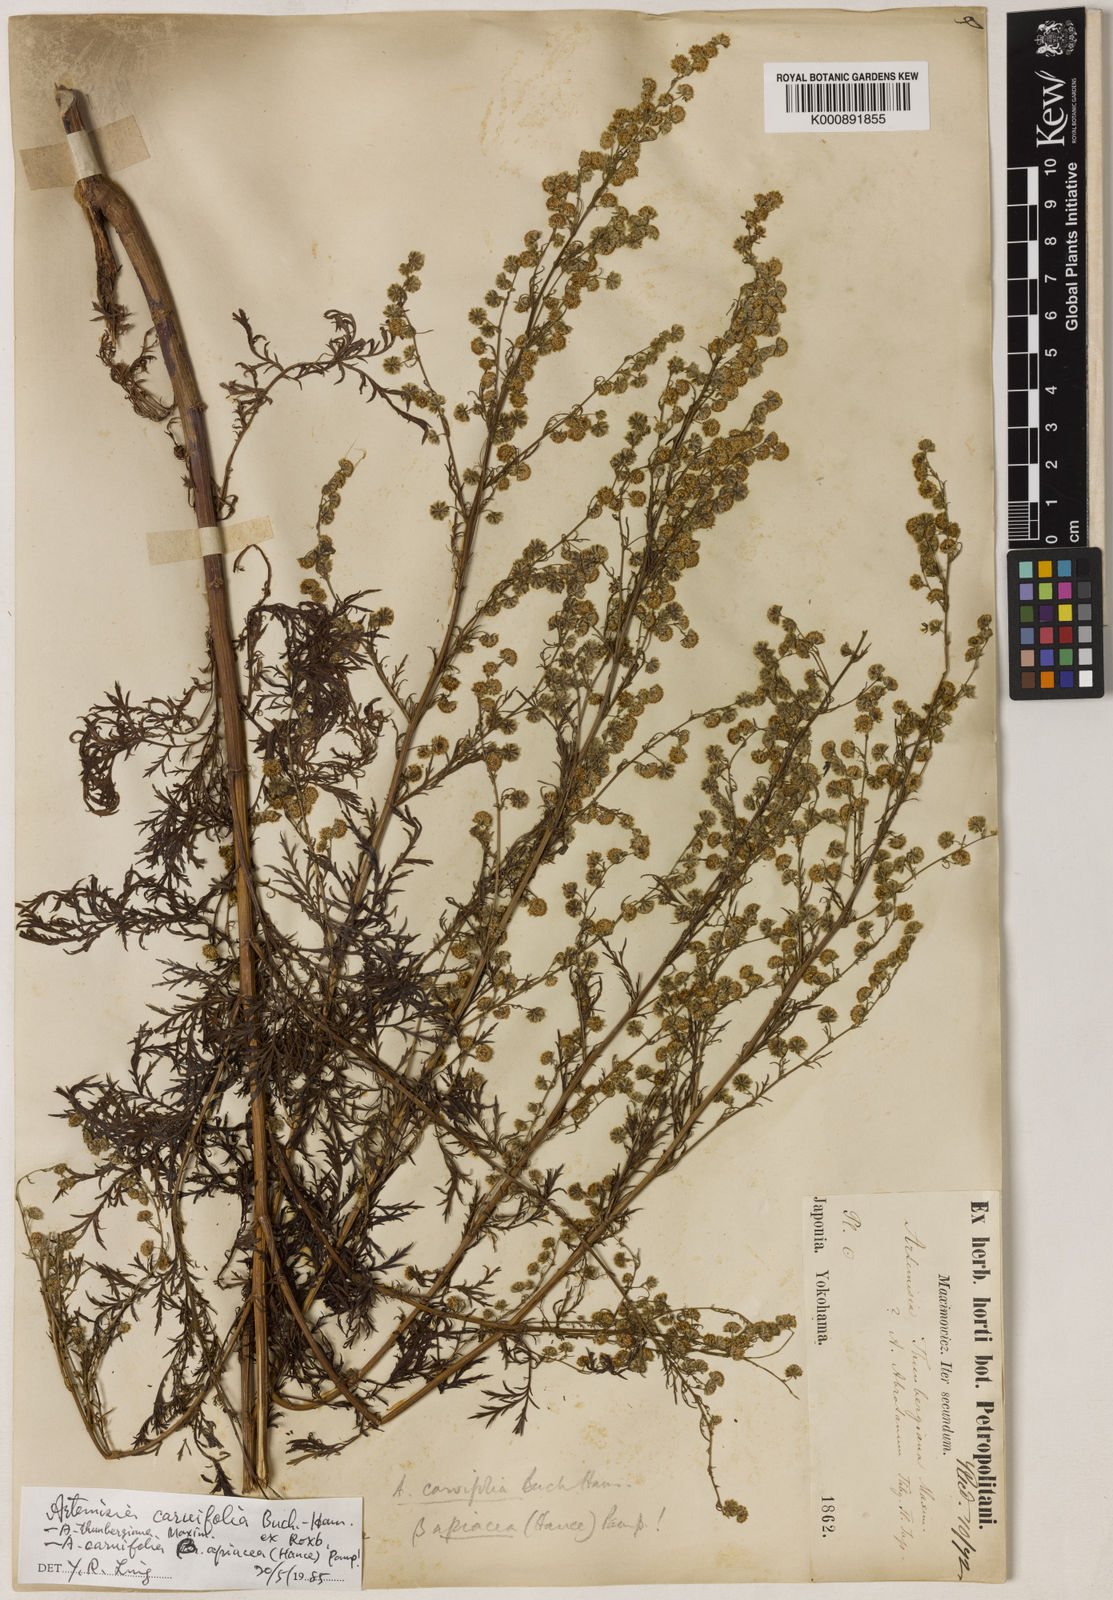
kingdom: Plantae
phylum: Tracheophyta
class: Magnoliopsida
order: Asterales
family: Asteraceae
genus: Artemisia
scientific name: Artemisia
